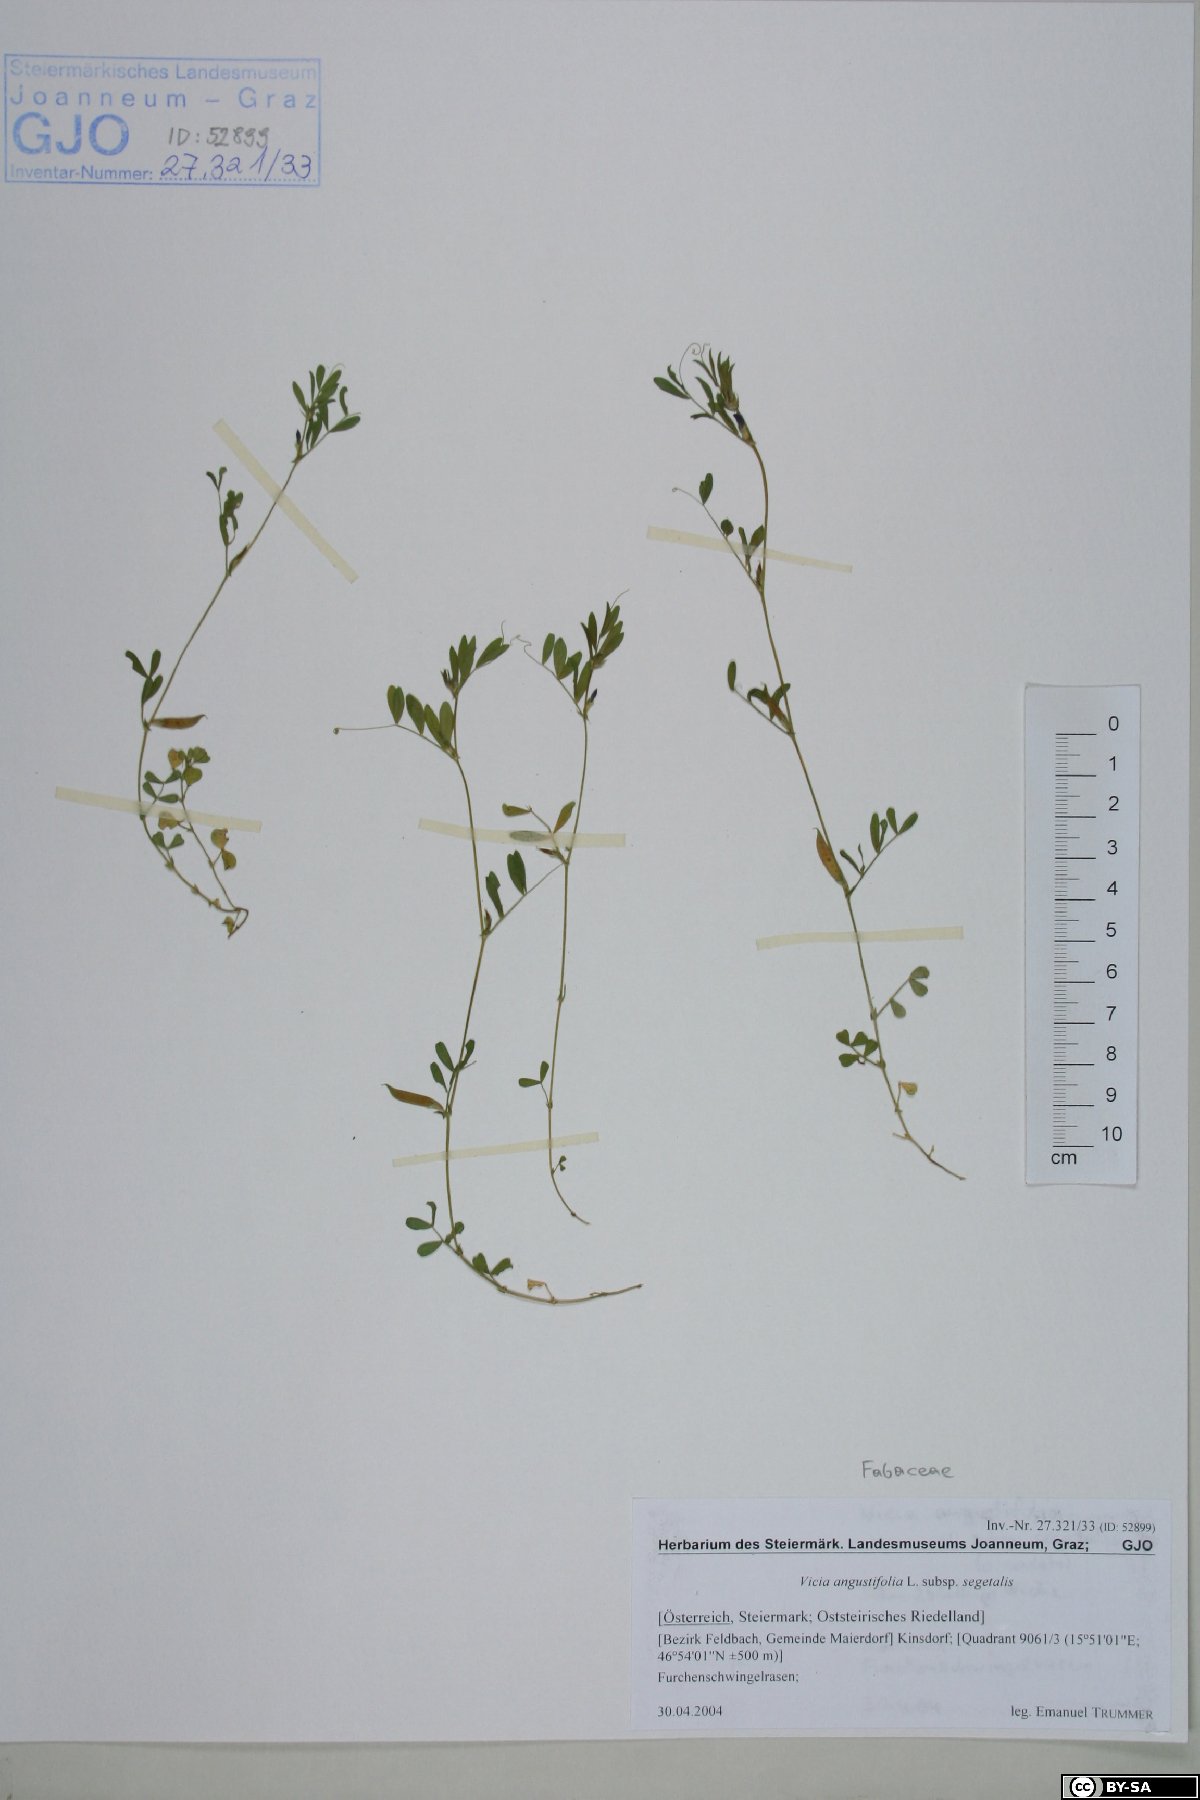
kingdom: Plantae
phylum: Tracheophyta
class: Magnoliopsida
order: Fabales
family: Fabaceae
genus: Vicia
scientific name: Vicia sativa
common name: Garden vetch
